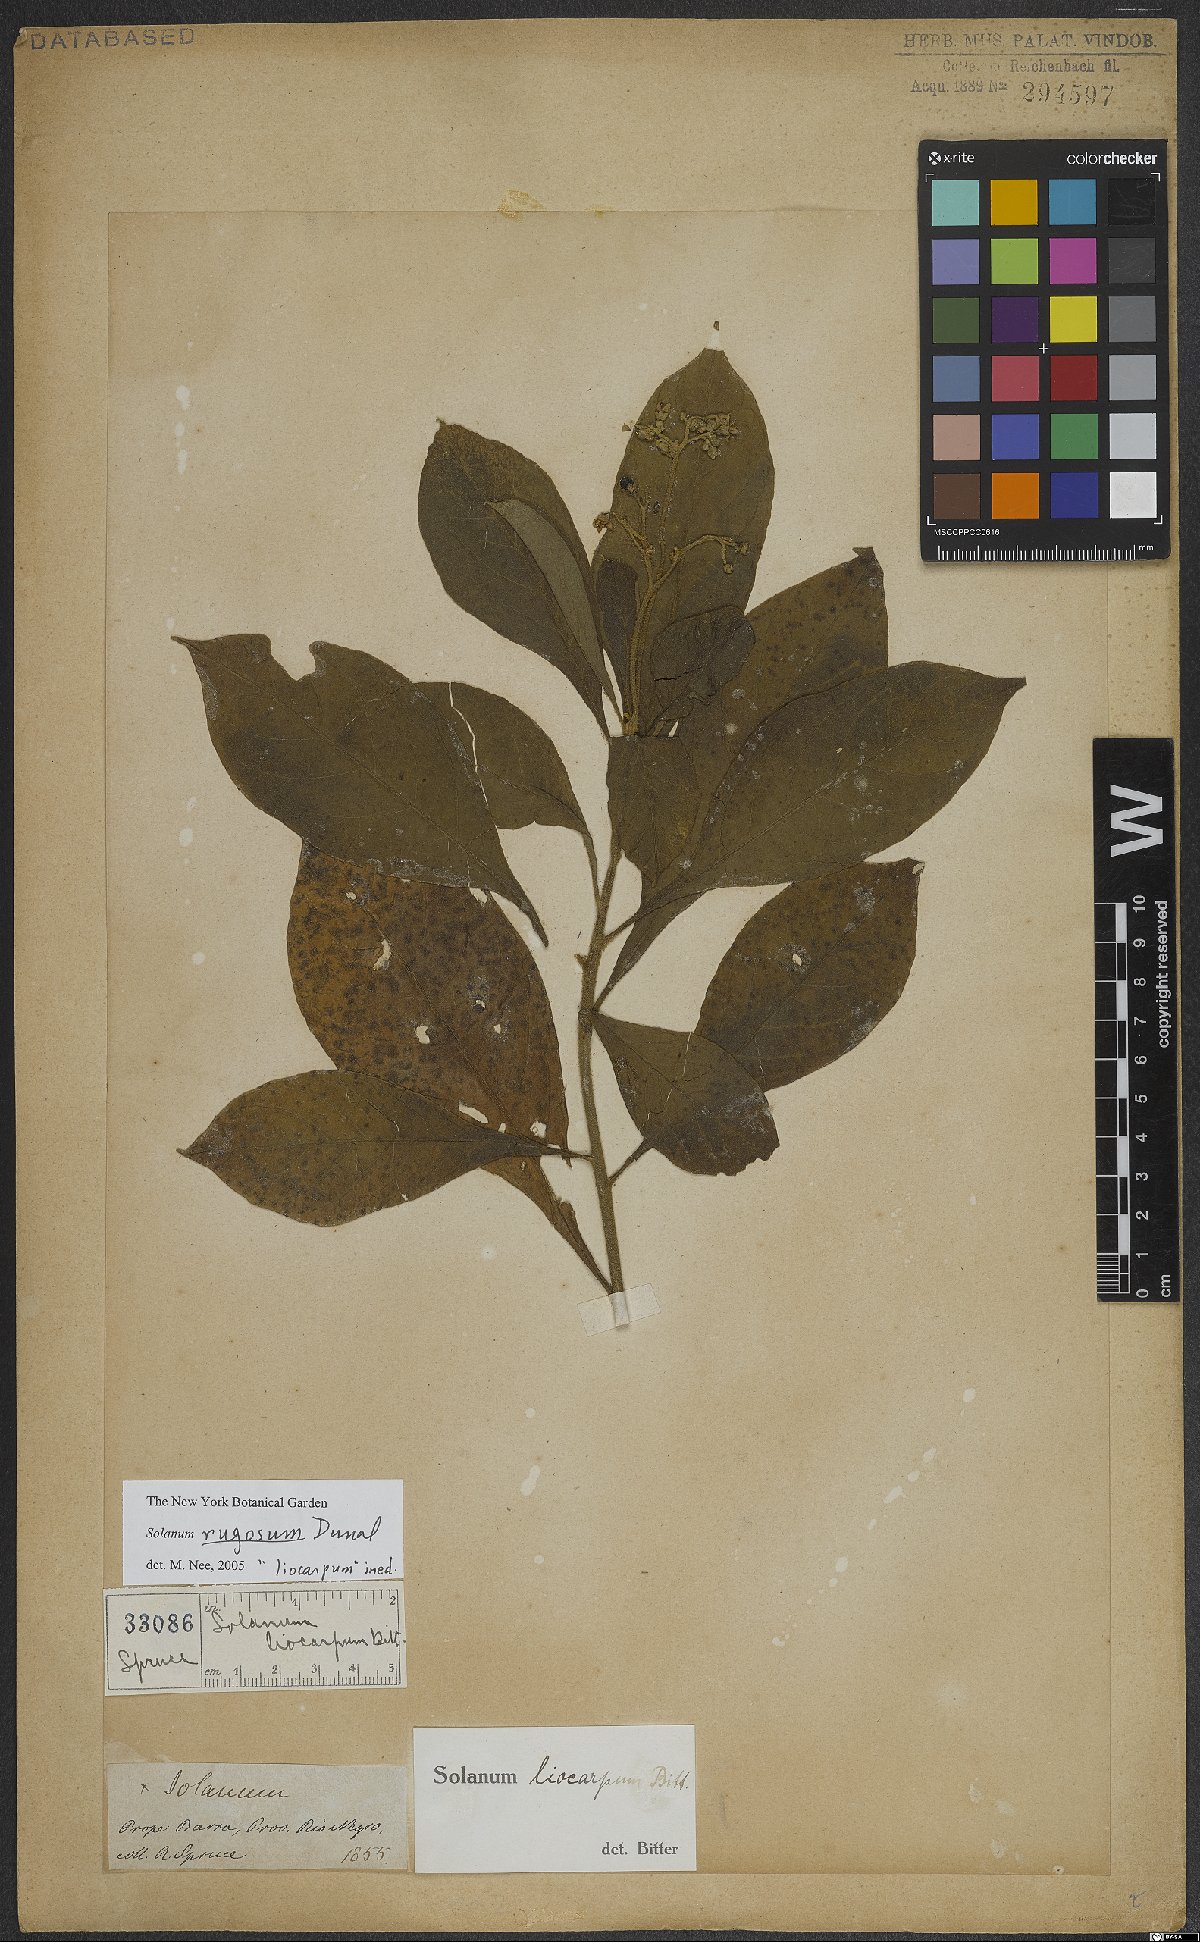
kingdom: Plantae
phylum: Tracheophyta
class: Magnoliopsida
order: Solanales
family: Solanaceae
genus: Solanum
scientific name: Solanum rugosum
